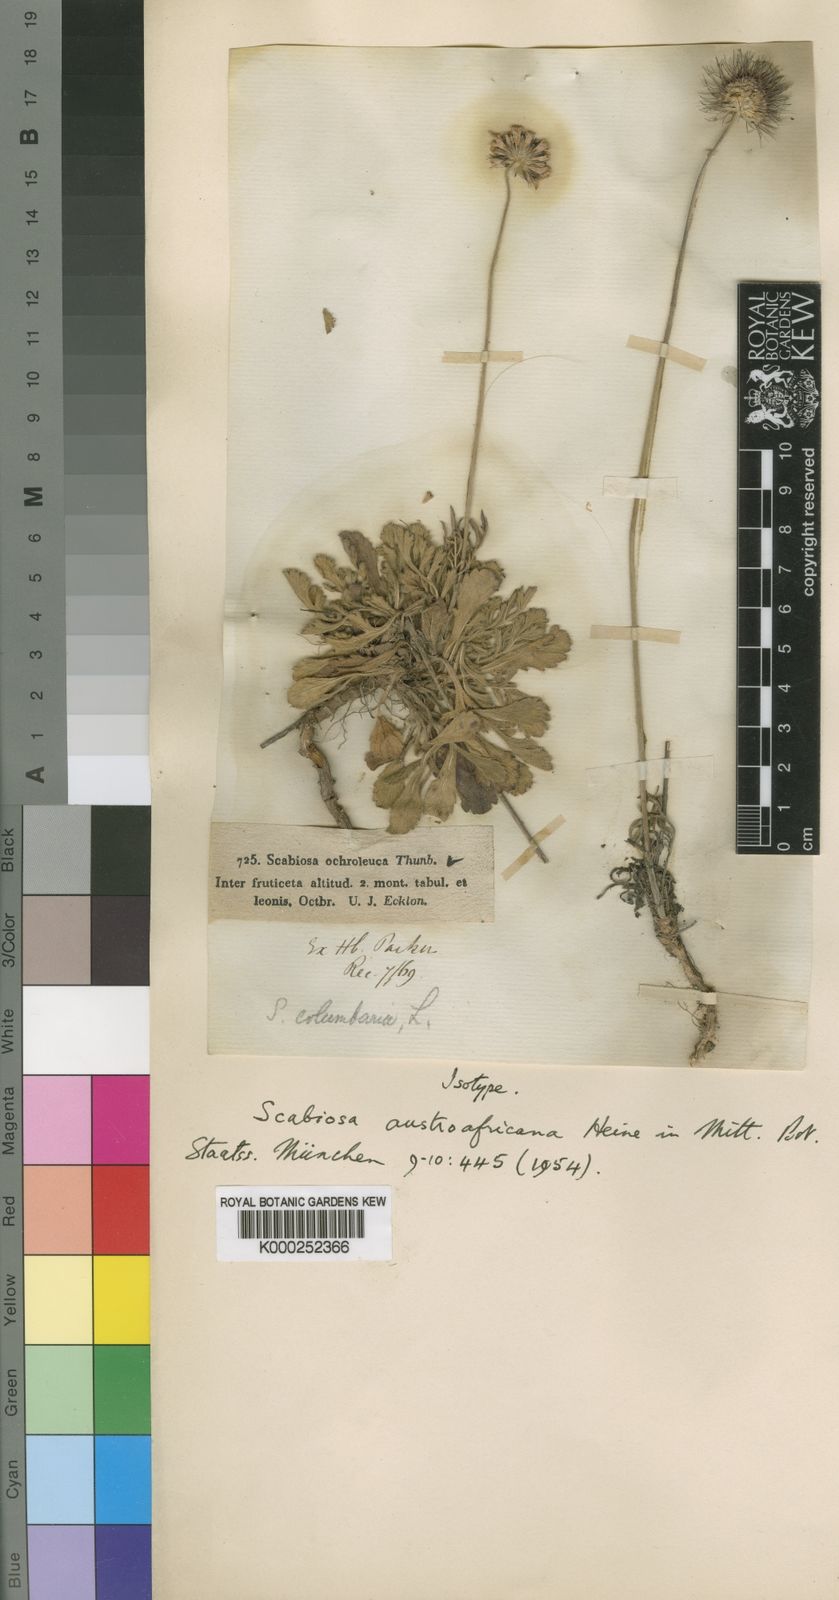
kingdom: Plantae
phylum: Tracheophyta
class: Magnoliopsida
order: Dipsacales
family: Caprifoliaceae
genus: Scabiosa
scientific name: Scabiosa columbaria
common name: Small scabious
